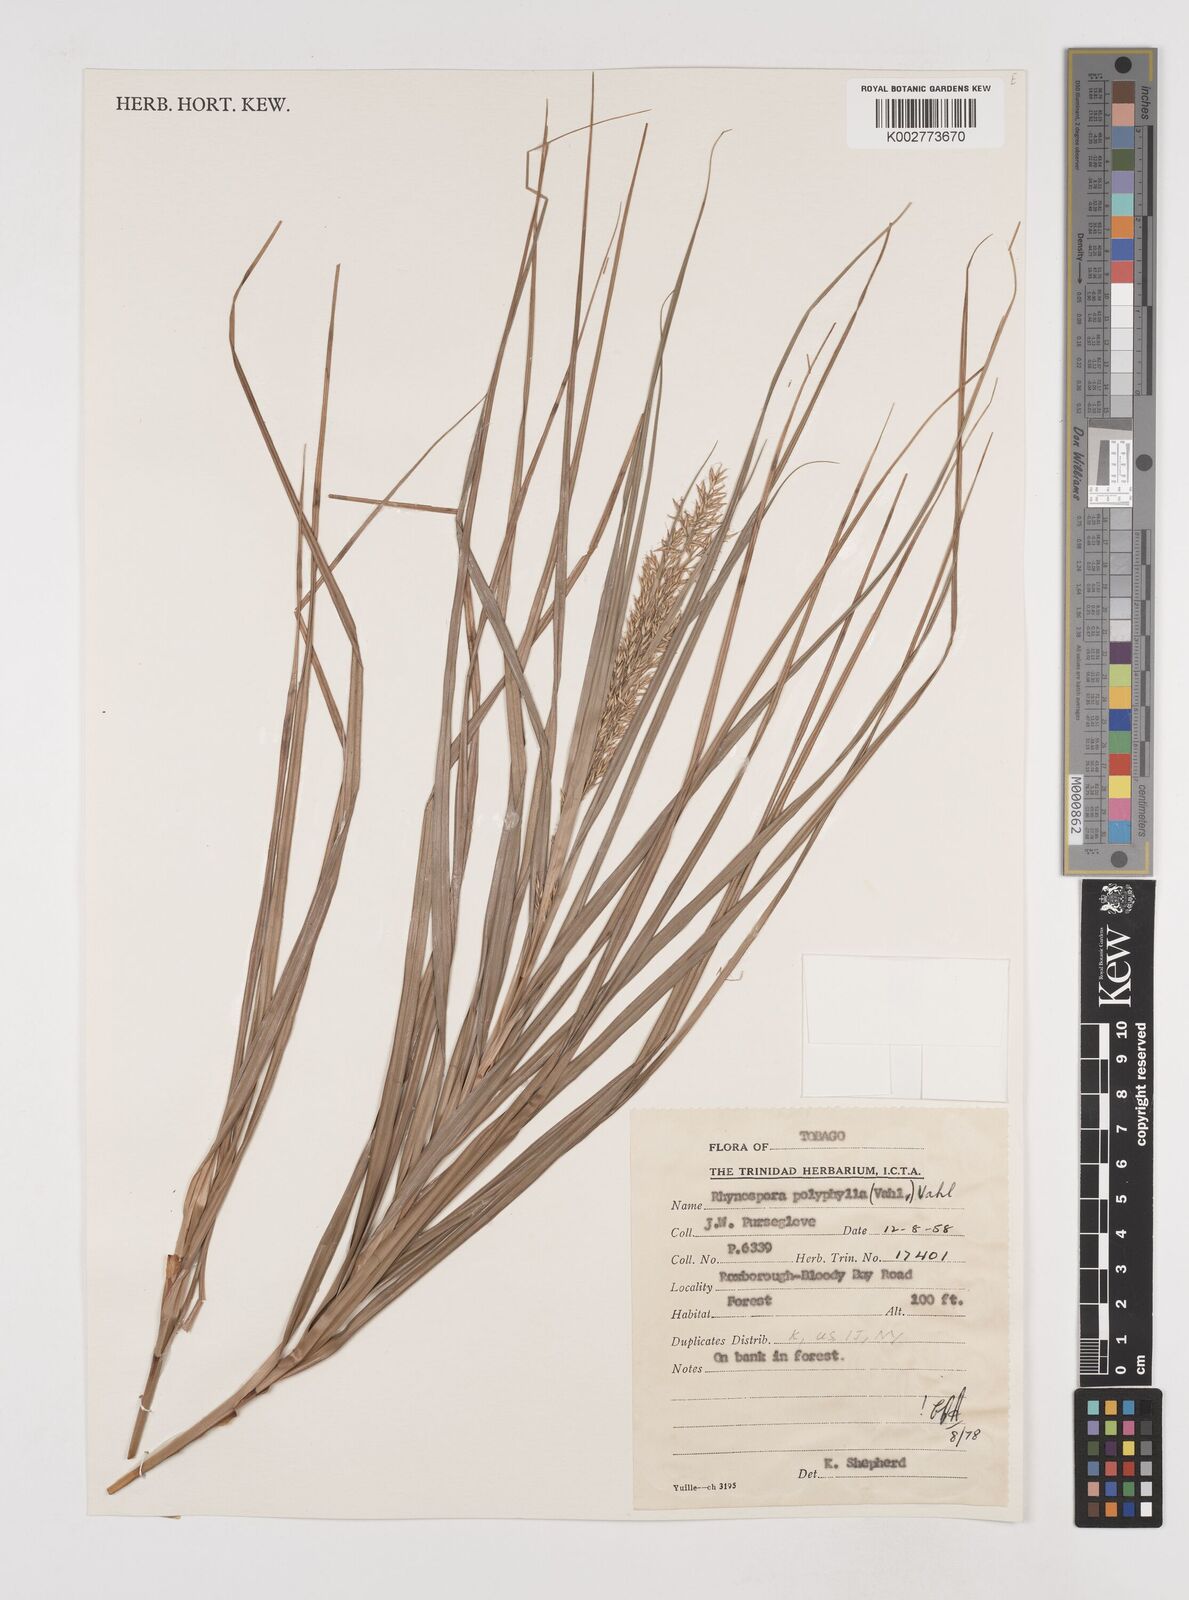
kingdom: Plantae
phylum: Tracheophyta
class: Liliopsida
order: Poales
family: Cyperaceae
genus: Rhynchospora
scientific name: Rhynchospora polyphylla
